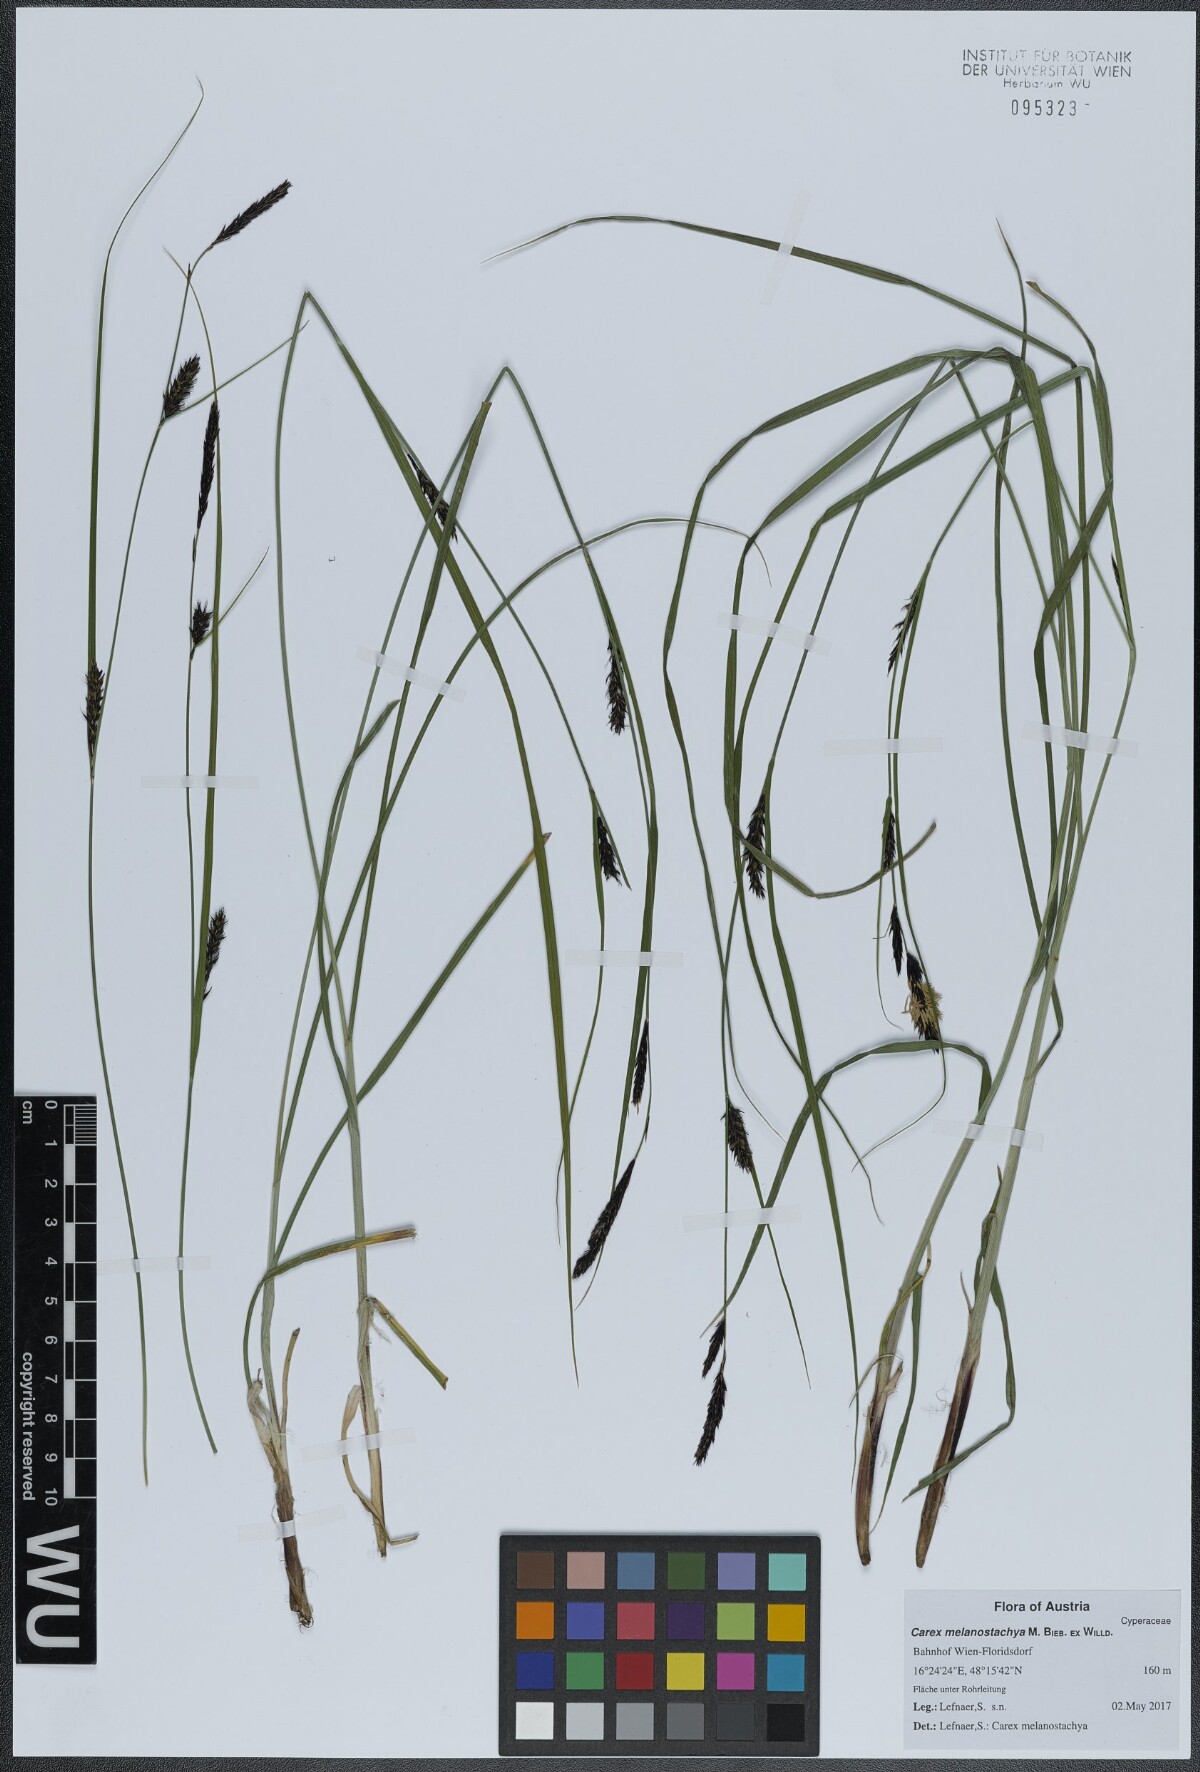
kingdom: Plantae
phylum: Tracheophyta
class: Liliopsida
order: Poales
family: Cyperaceae
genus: Carex
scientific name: Carex melanostachya
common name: Black-spiked sedge
